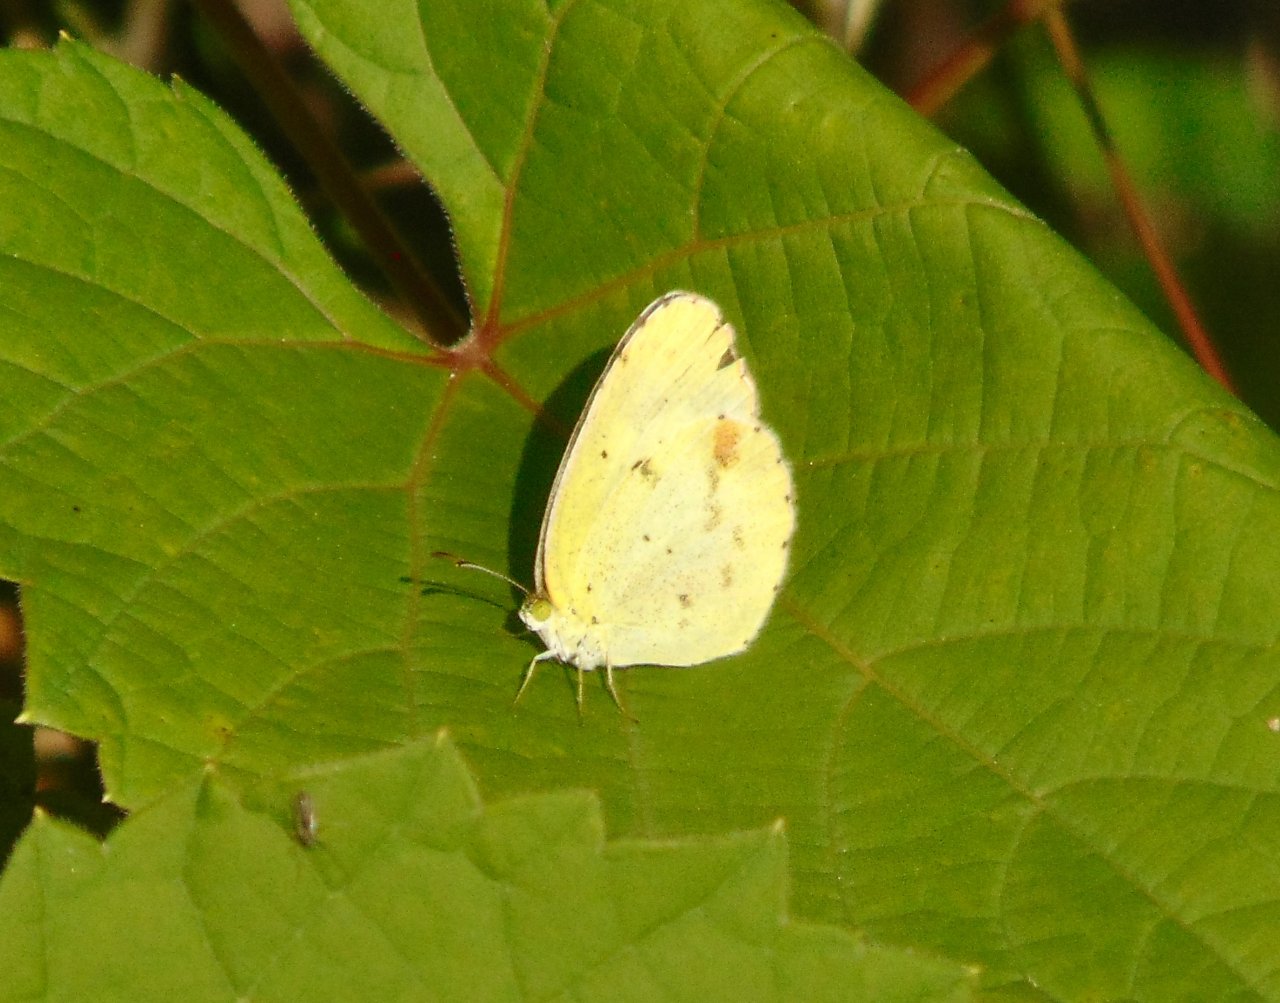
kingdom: Animalia
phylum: Arthropoda
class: Insecta
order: Lepidoptera
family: Pieridae
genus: Pyrisitia
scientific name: Pyrisitia lisa
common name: Little Yellow
